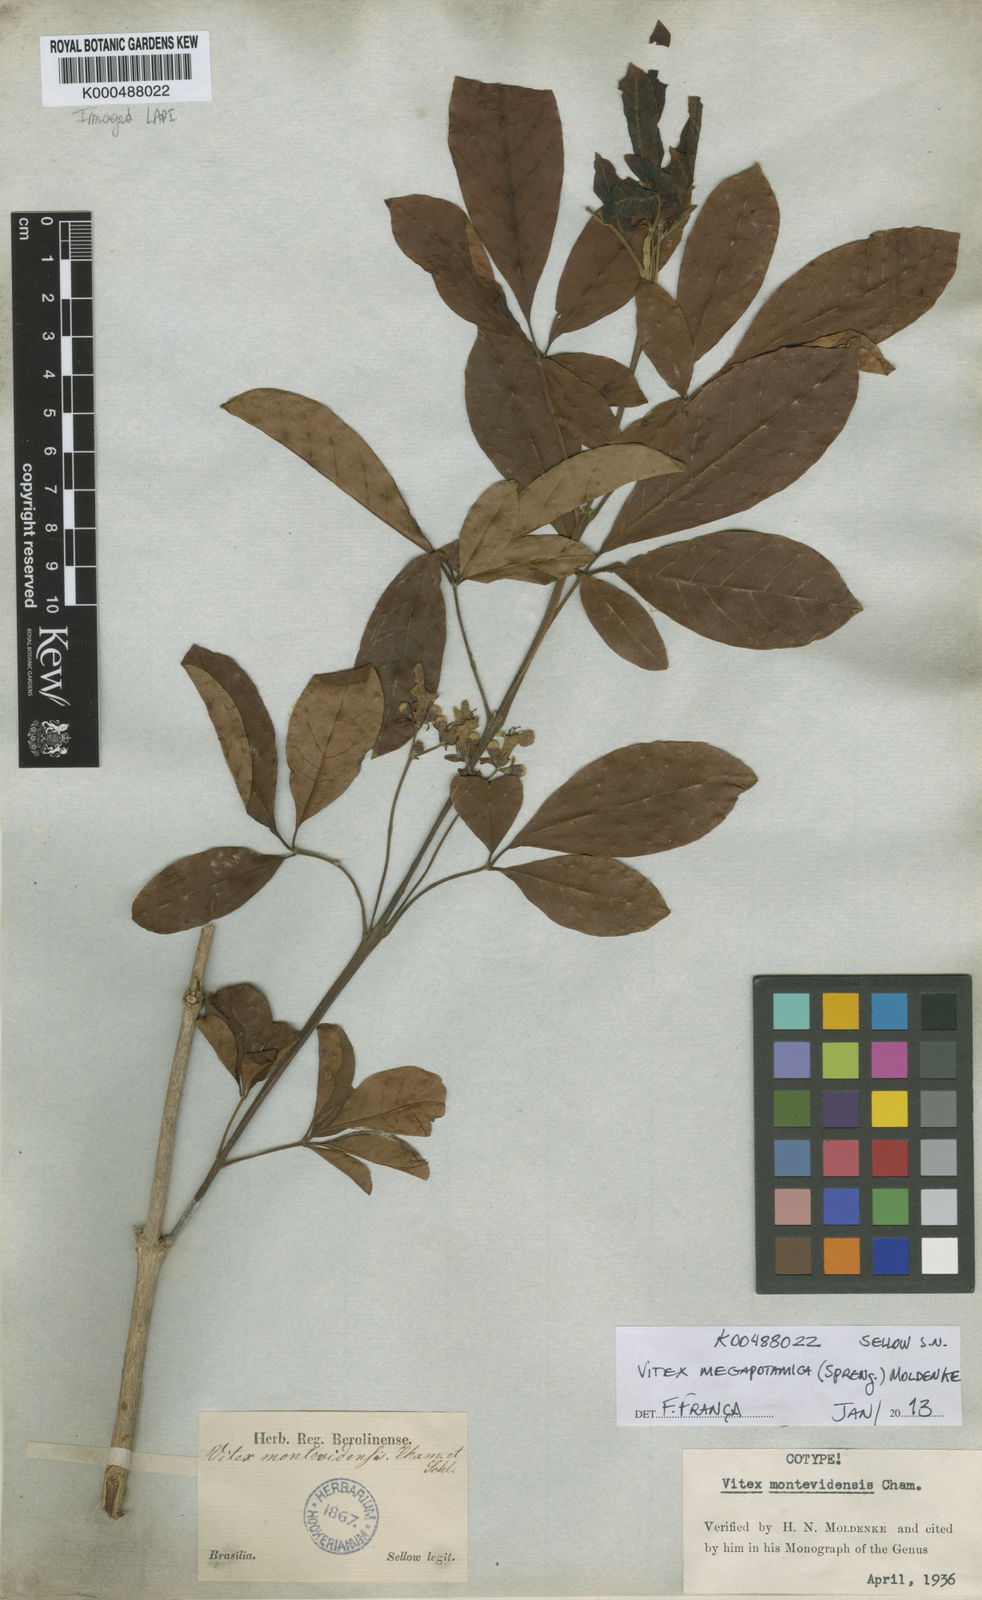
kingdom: Plantae
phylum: Tracheophyta
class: Magnoliopsida
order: Lamiales
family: Lamiaceae
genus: Vitex
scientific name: Vitex megapotamica
